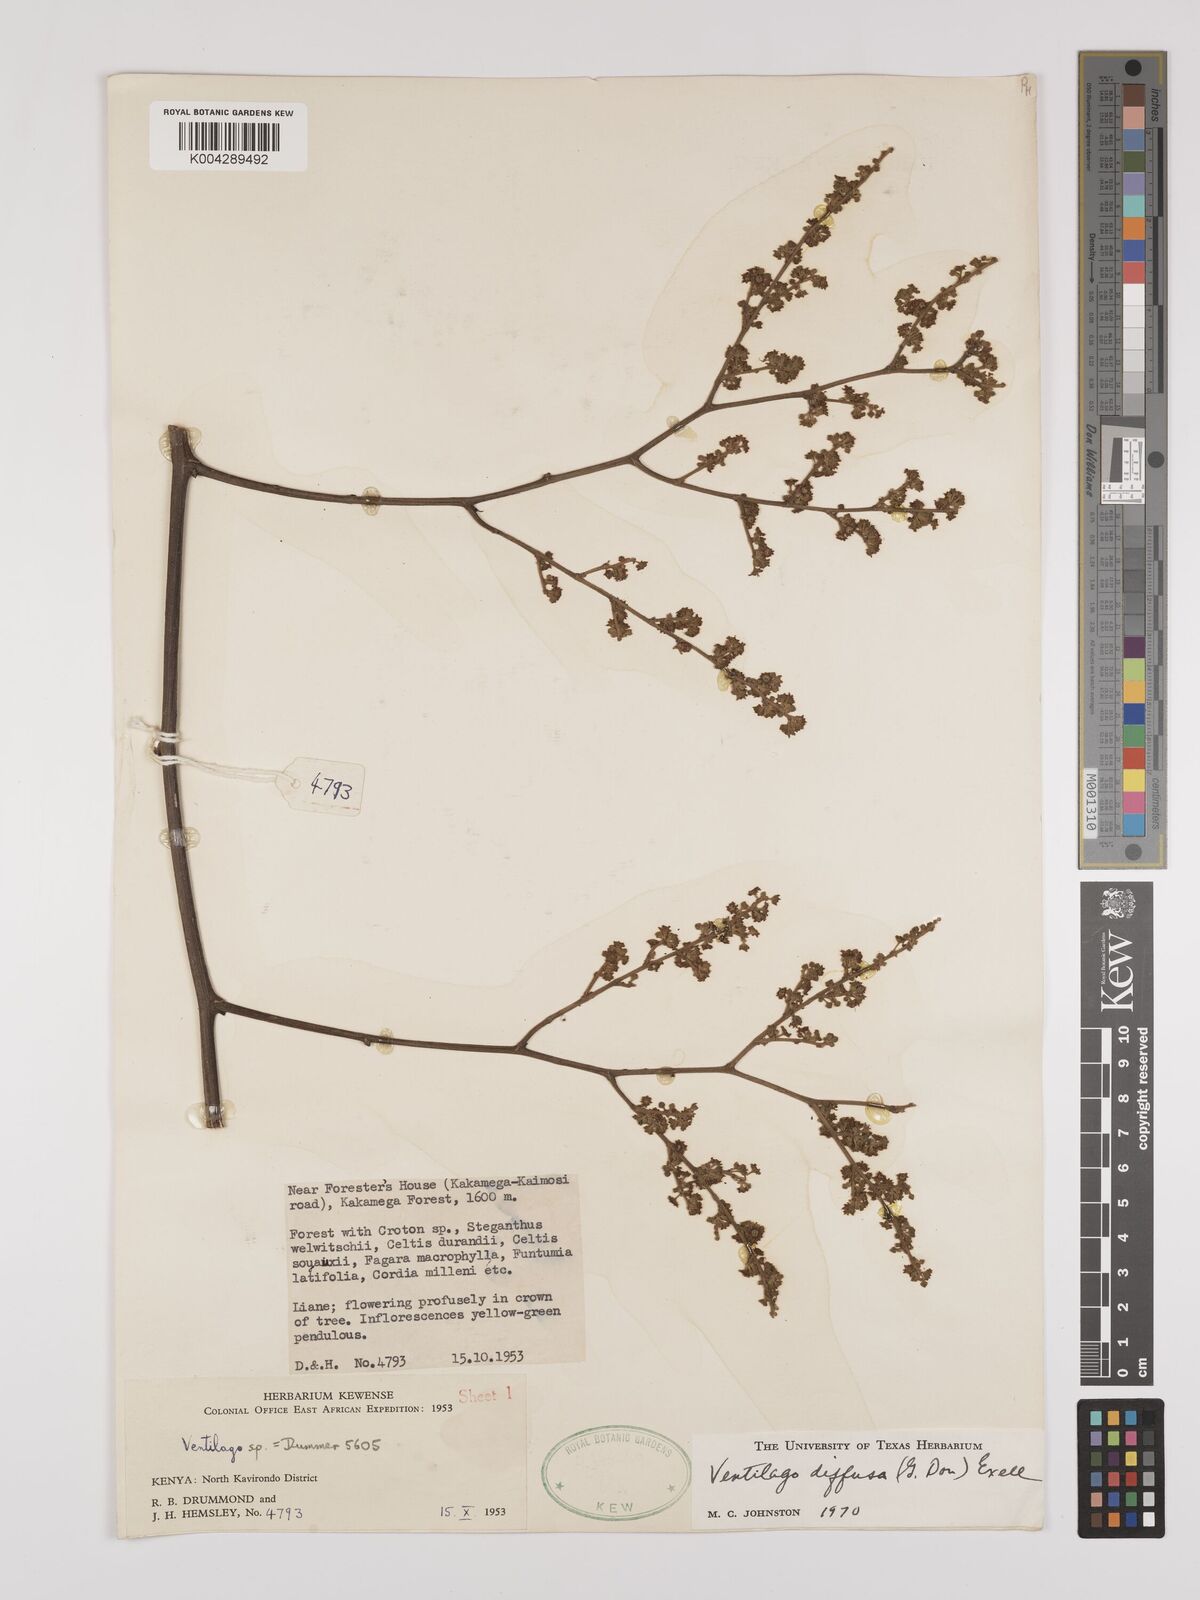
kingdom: Plantae
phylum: Tracheophyta
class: Magnoliopsida
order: Rosales
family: Rhamnaceae
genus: Ventilago
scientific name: Ventilago diffusa
